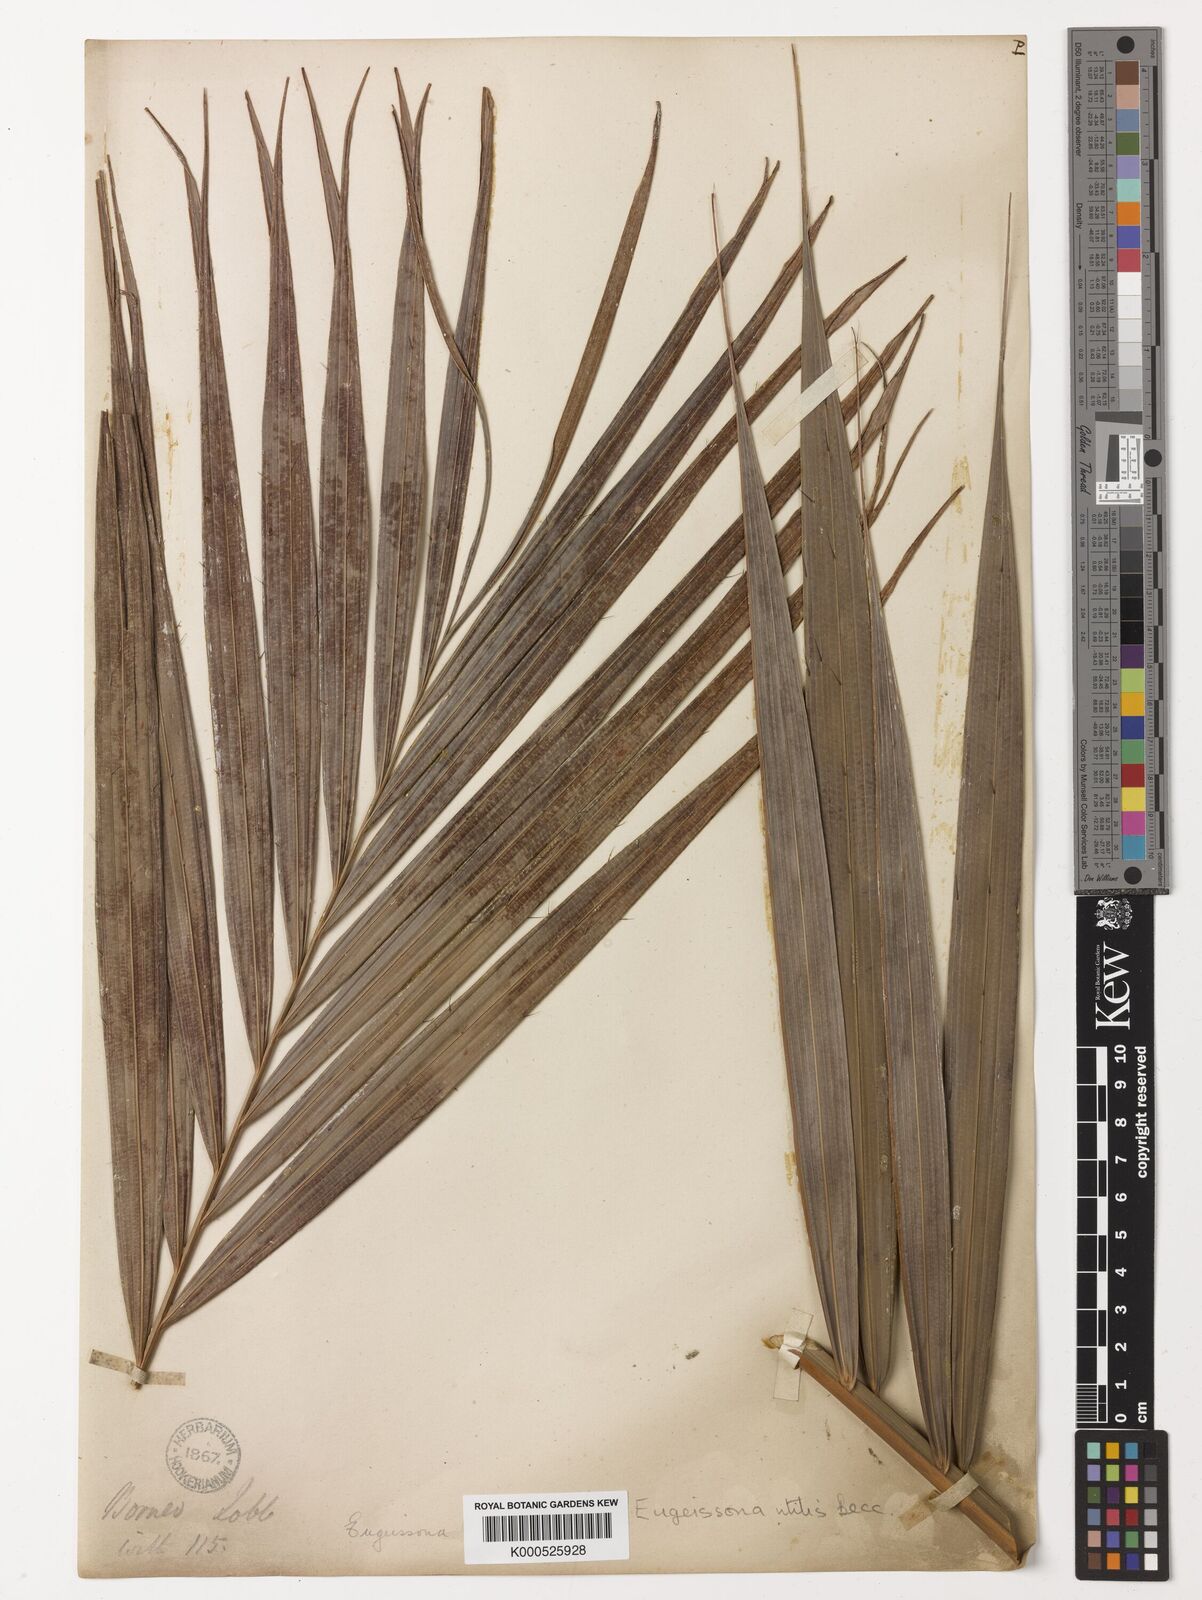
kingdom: Plantae
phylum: Tracheophyta
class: Liliopsida
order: Arecales
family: Arecaceae
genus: Eugeissona
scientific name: Eugeissona utilis
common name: Wild bornean sago palm
